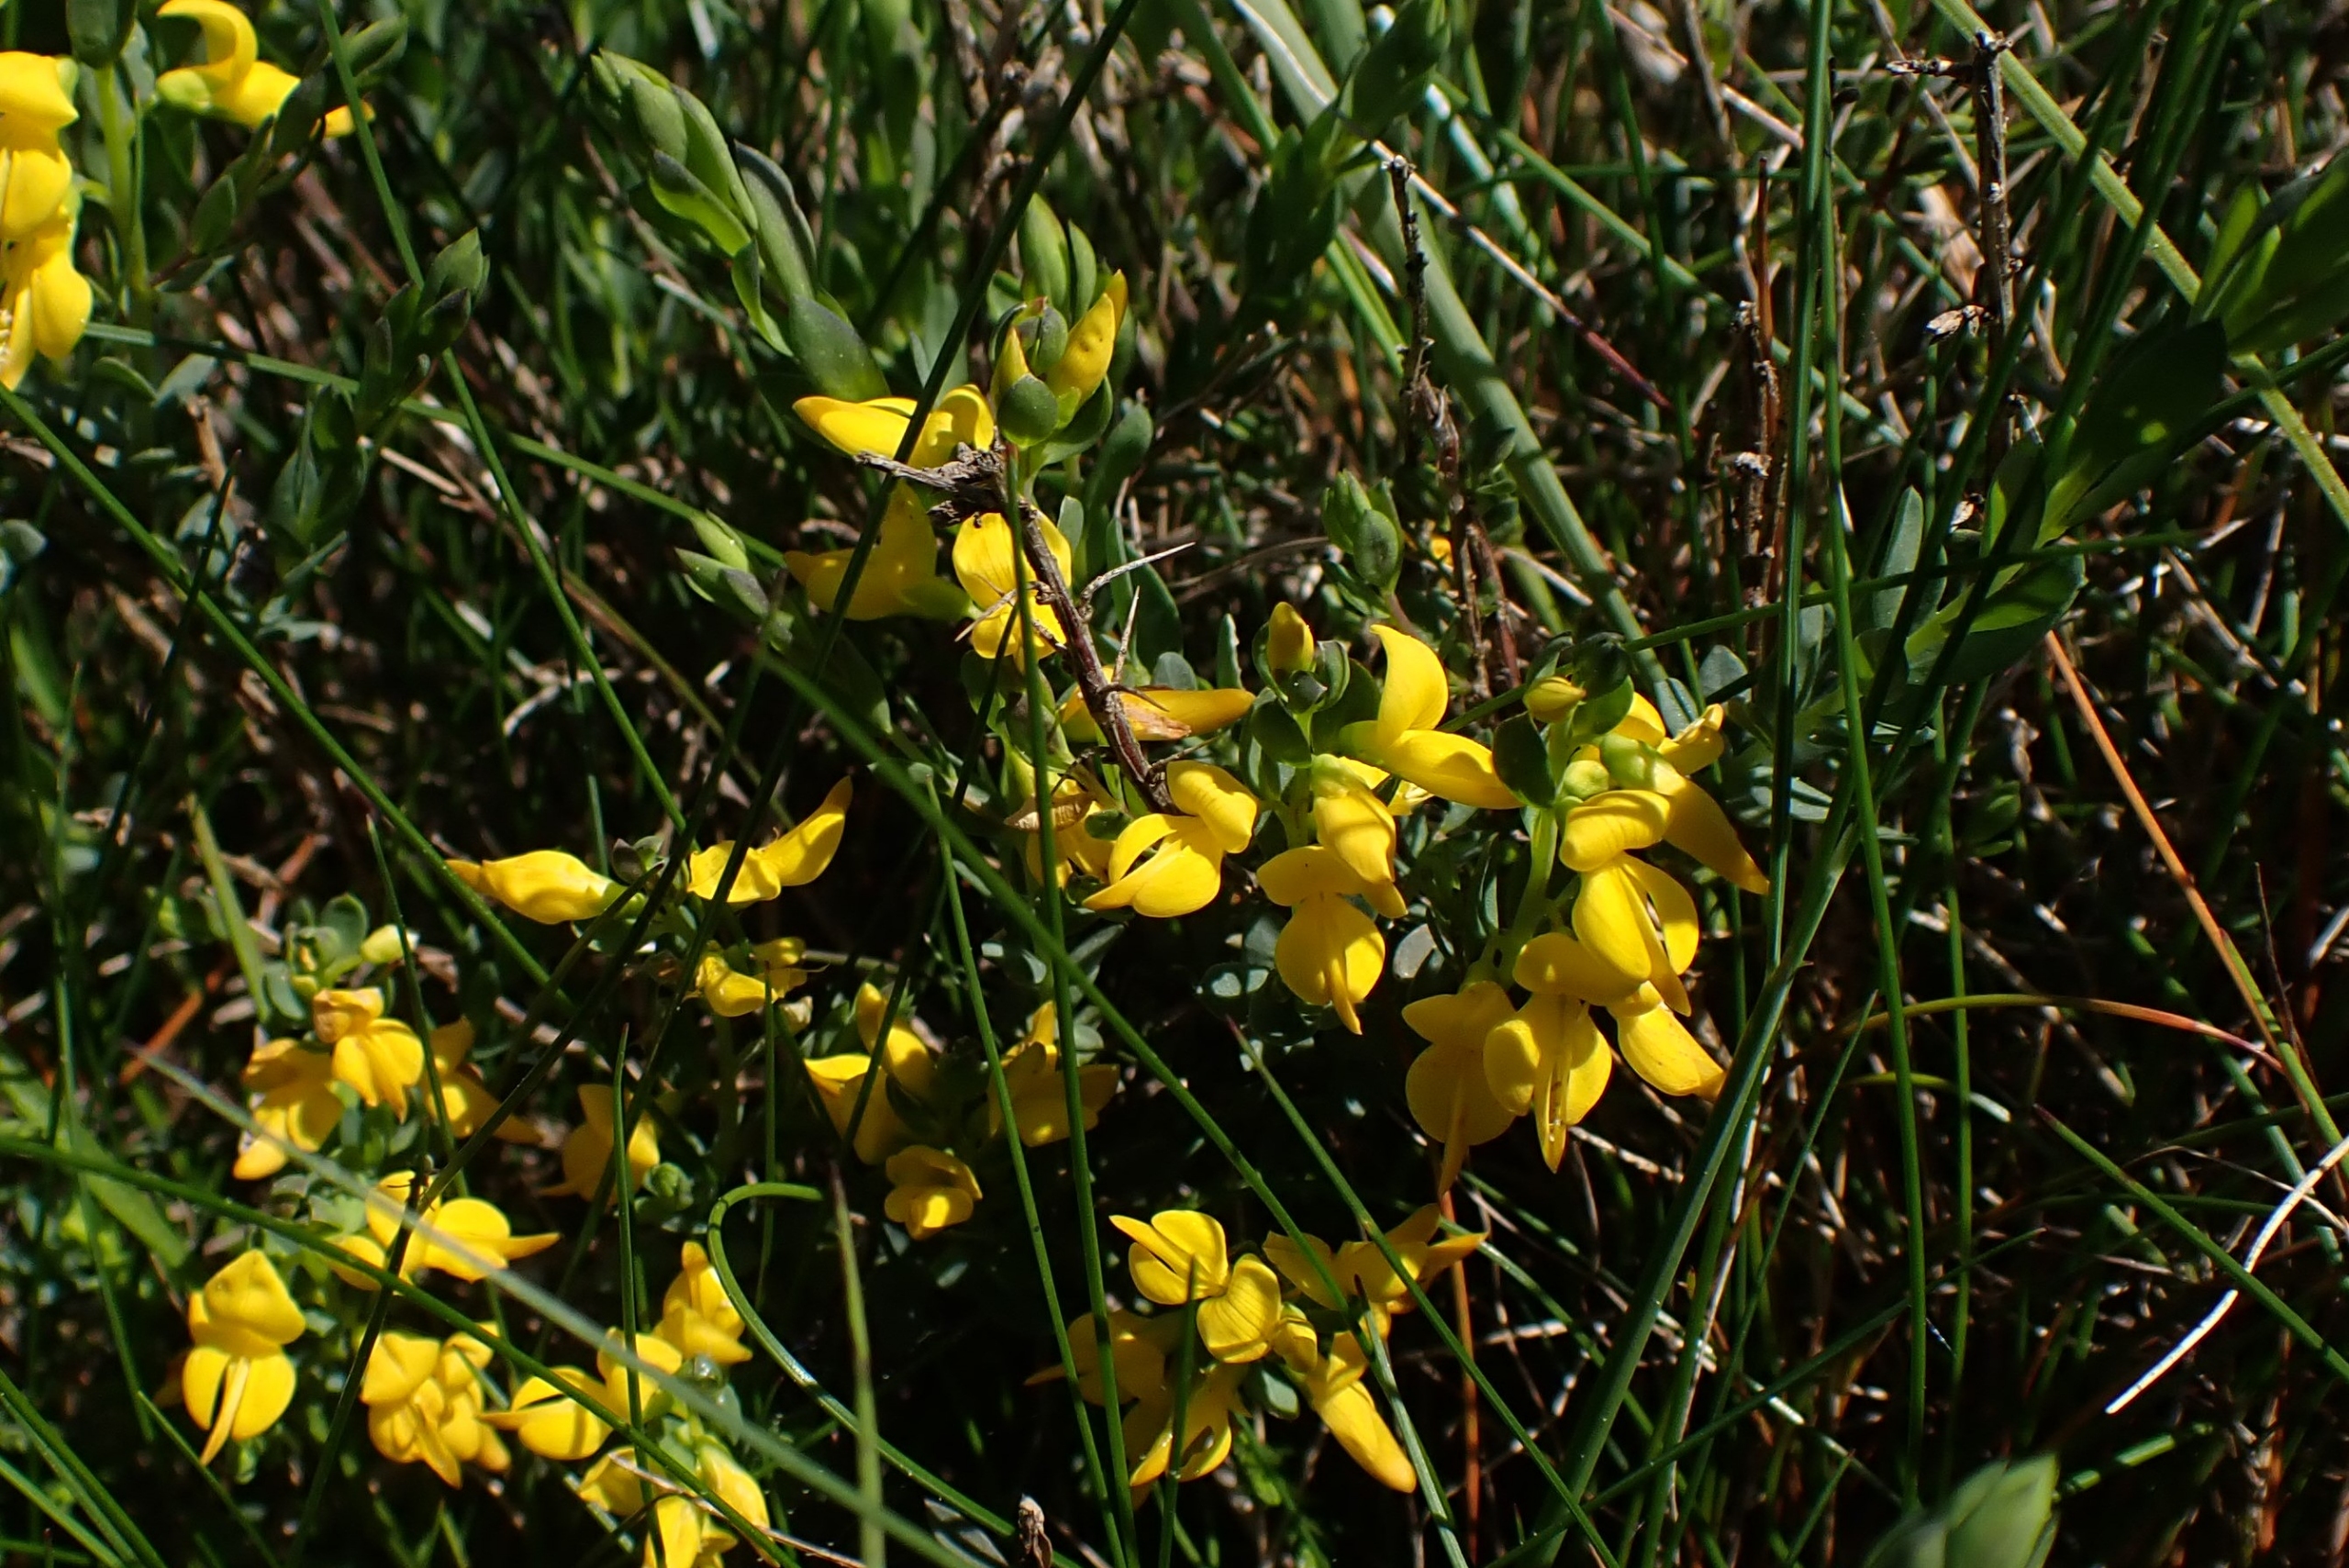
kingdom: Plantae
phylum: Tracheophyta
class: Magnoliopsida
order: Fabales
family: Fabaceae
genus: Genista
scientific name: Genista anglica
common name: Engelsk visse
